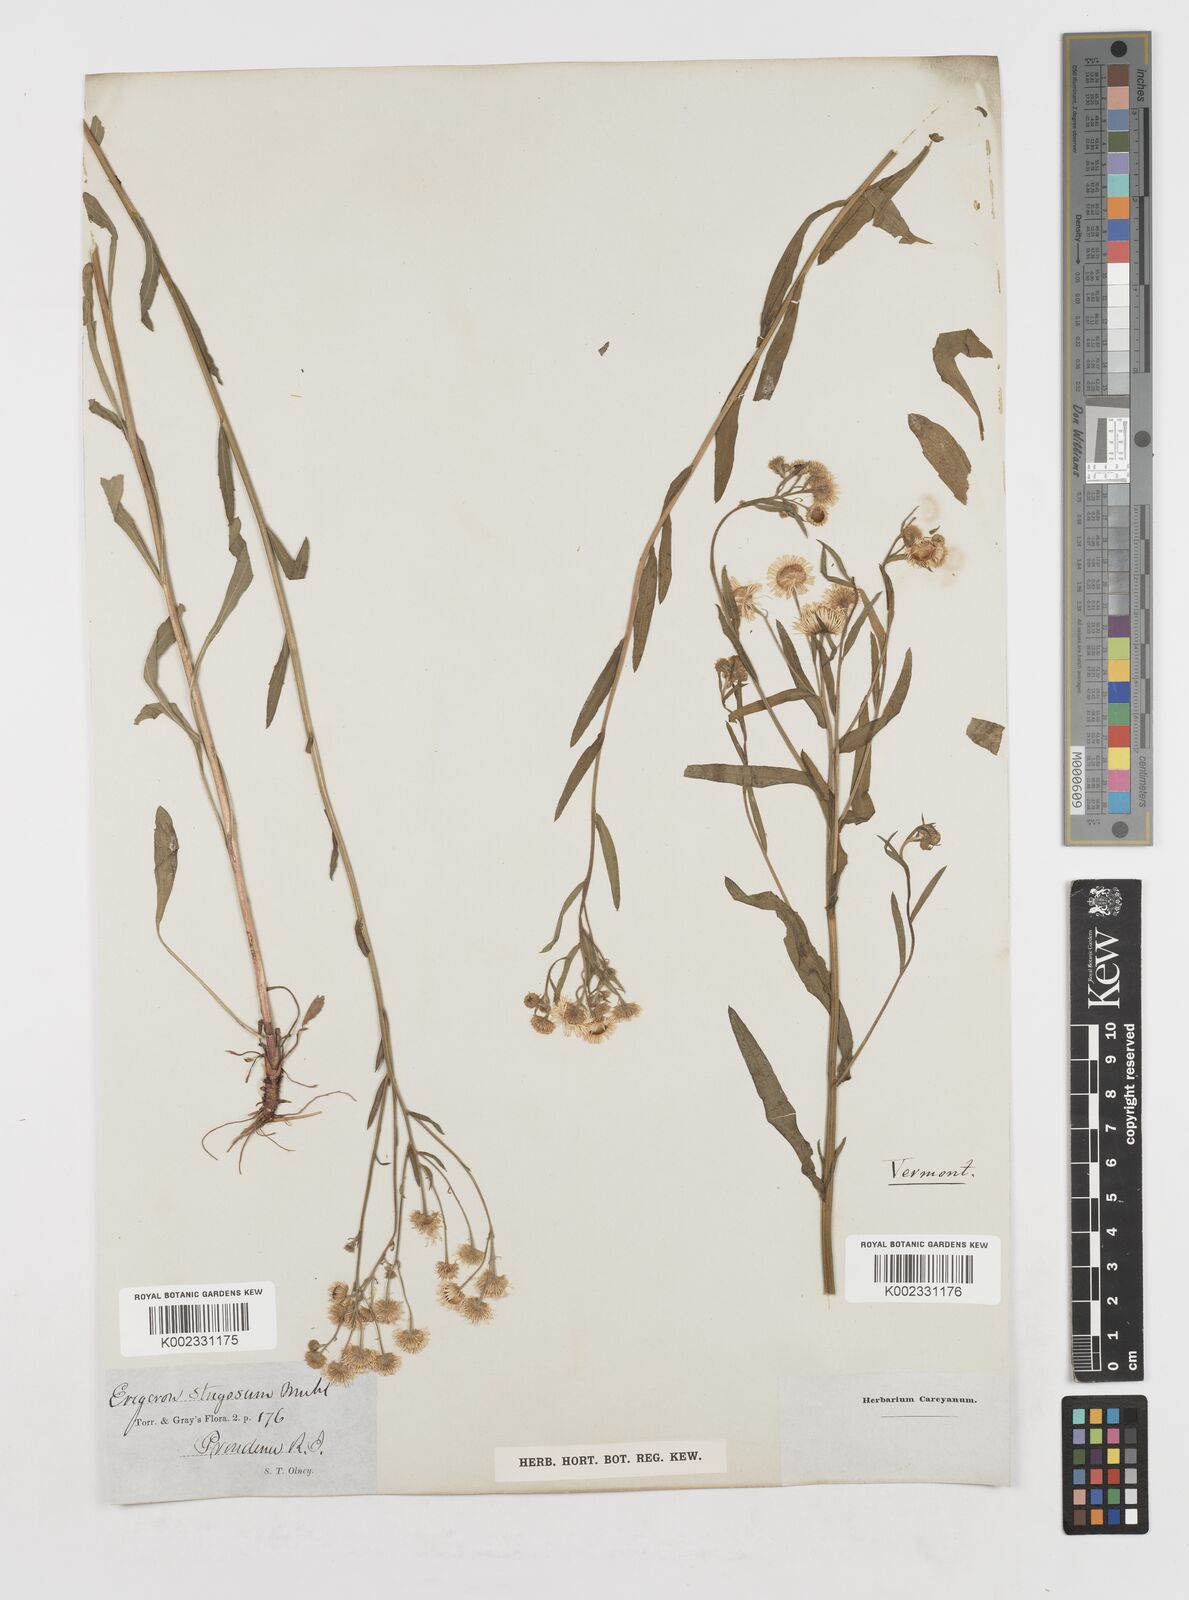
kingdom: Plantae
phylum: Tracheophyta
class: Magnoliopsida
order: Asterales
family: Asteraceae
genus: Erigeron
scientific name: Erigeron strigosus
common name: Common eastern fleabane
